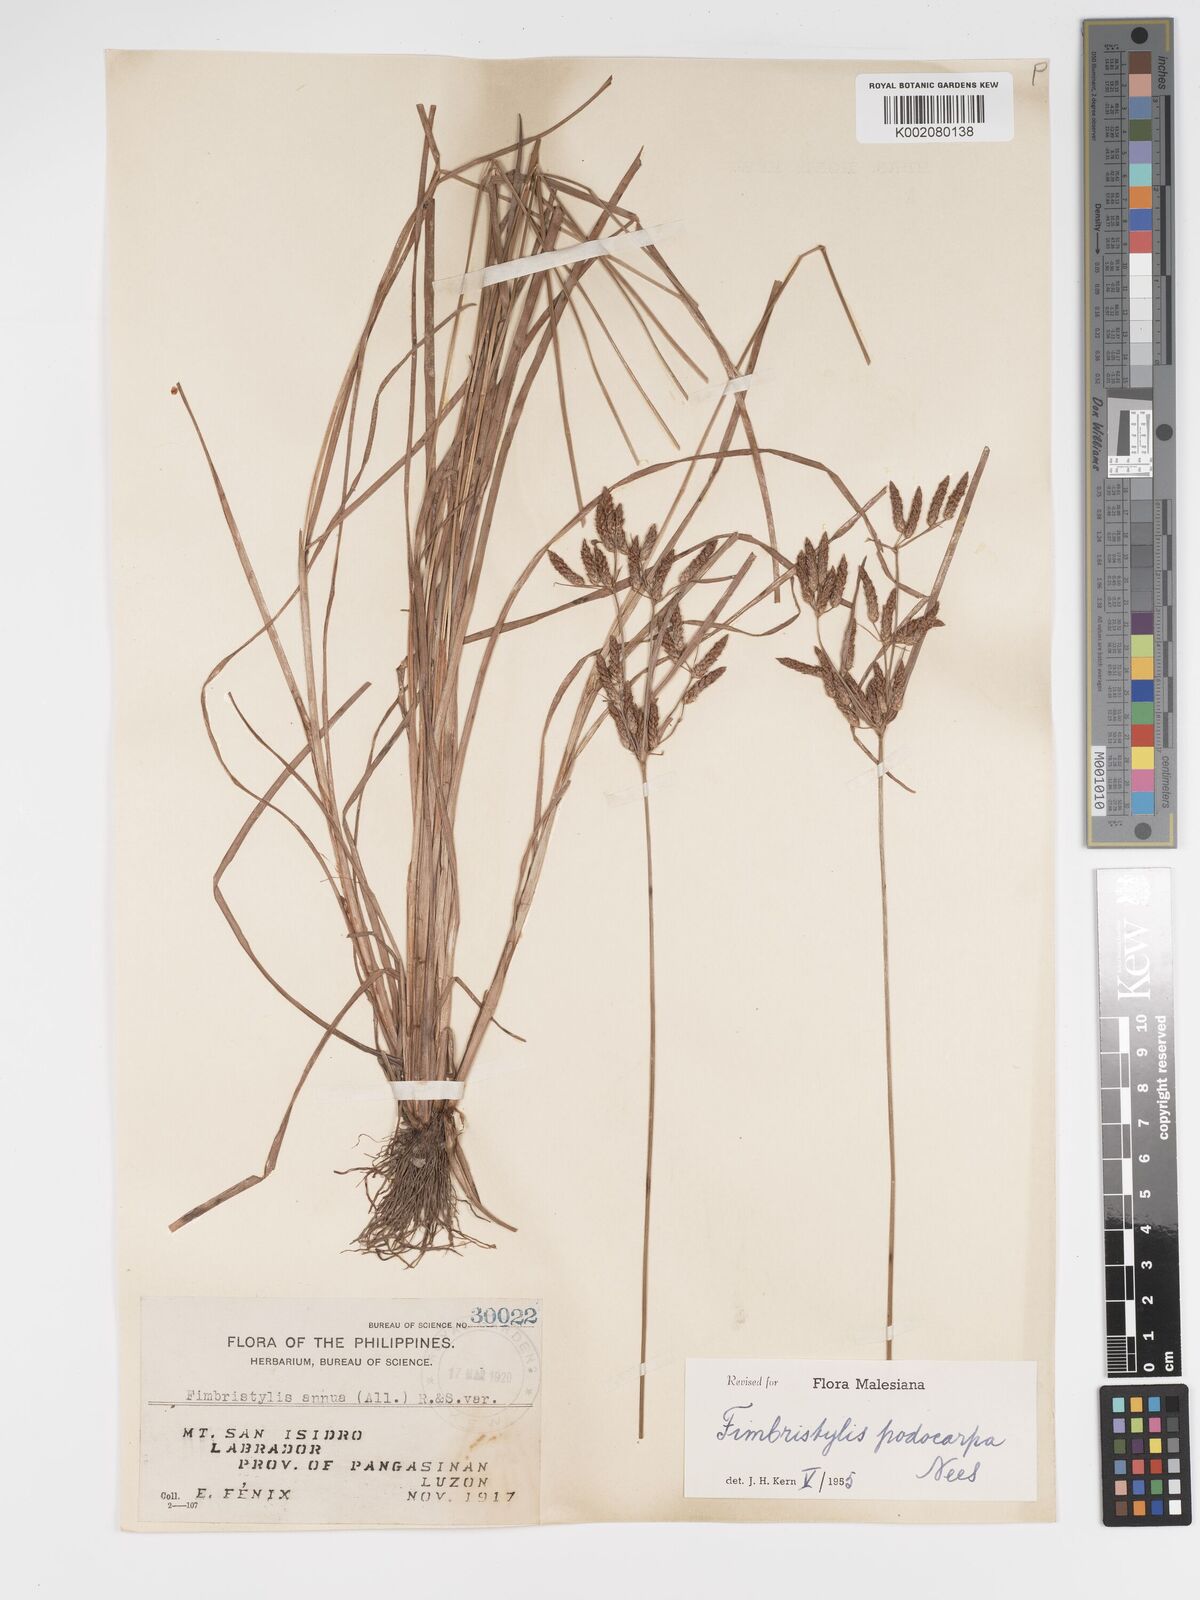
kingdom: Plantae
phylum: Tracheophyta
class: Liliopsida
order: Poales
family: Cyperaceae
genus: Fimbristylis
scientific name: Fimbristylis dichotoma
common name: Forked fimbry
